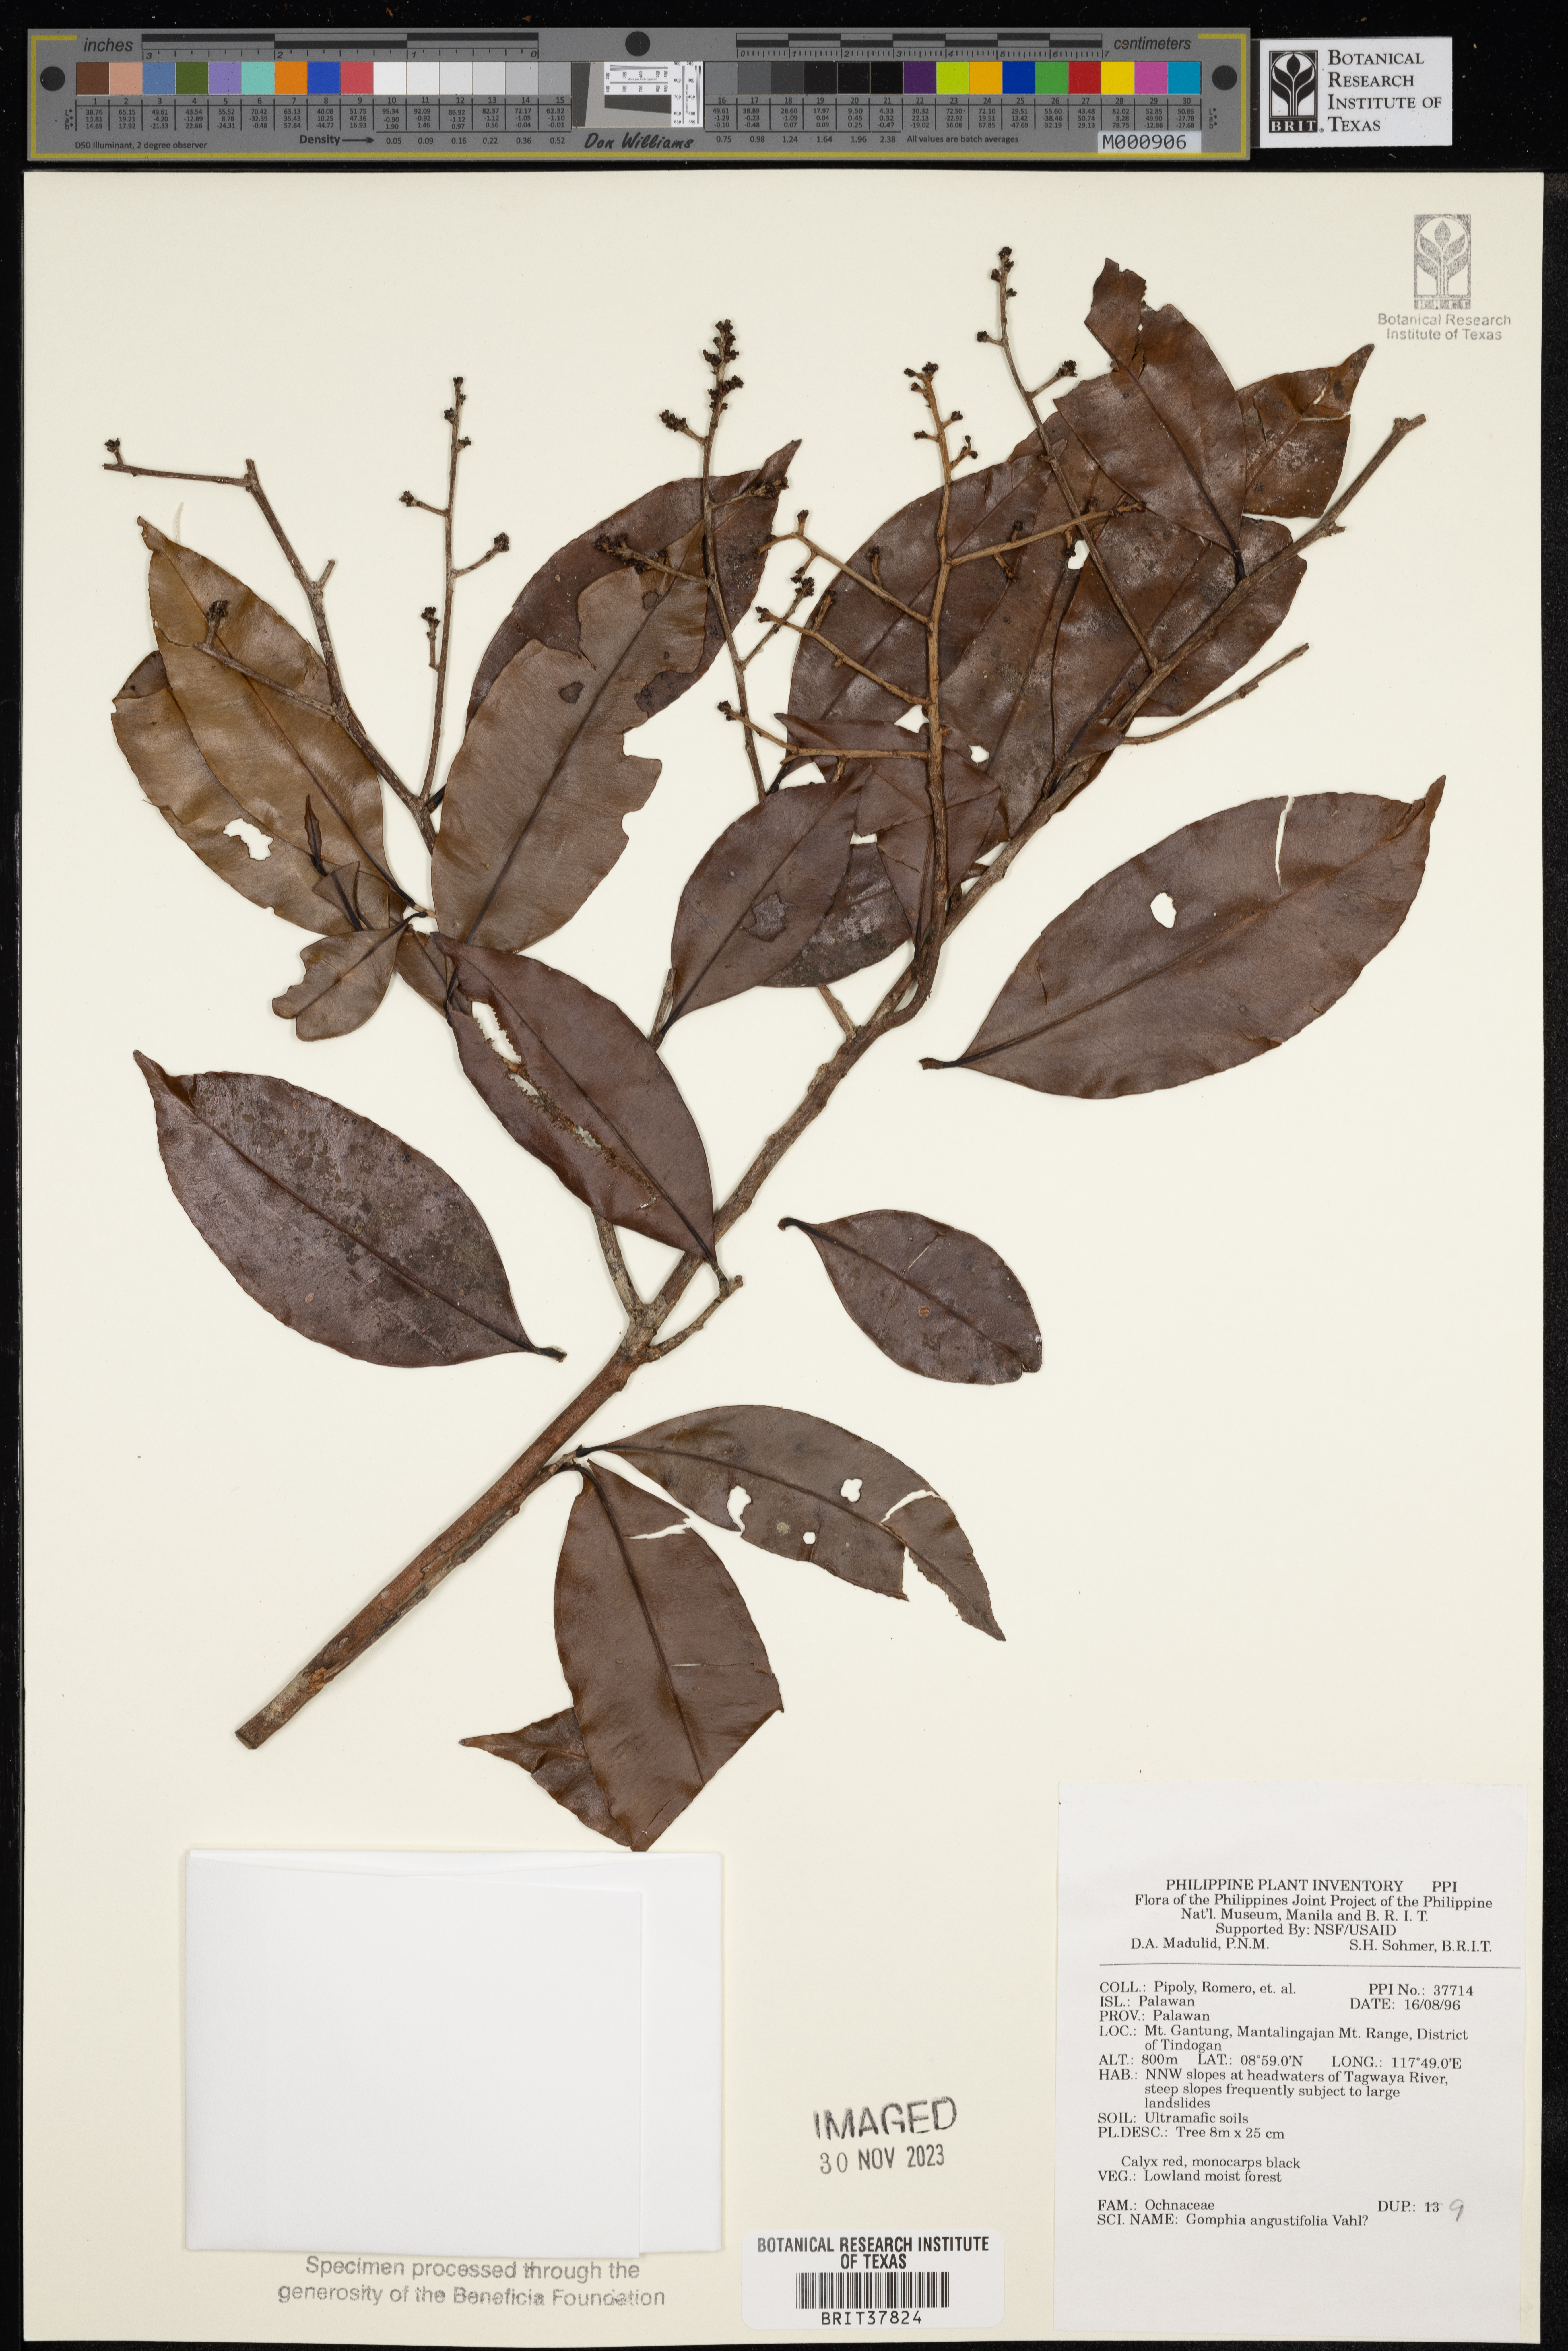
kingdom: Plantae
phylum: Tracheophyta
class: Magnoliopsida
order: Malpighiales
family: Ochnaceae
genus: Gomphia
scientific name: Gomphia serrata
